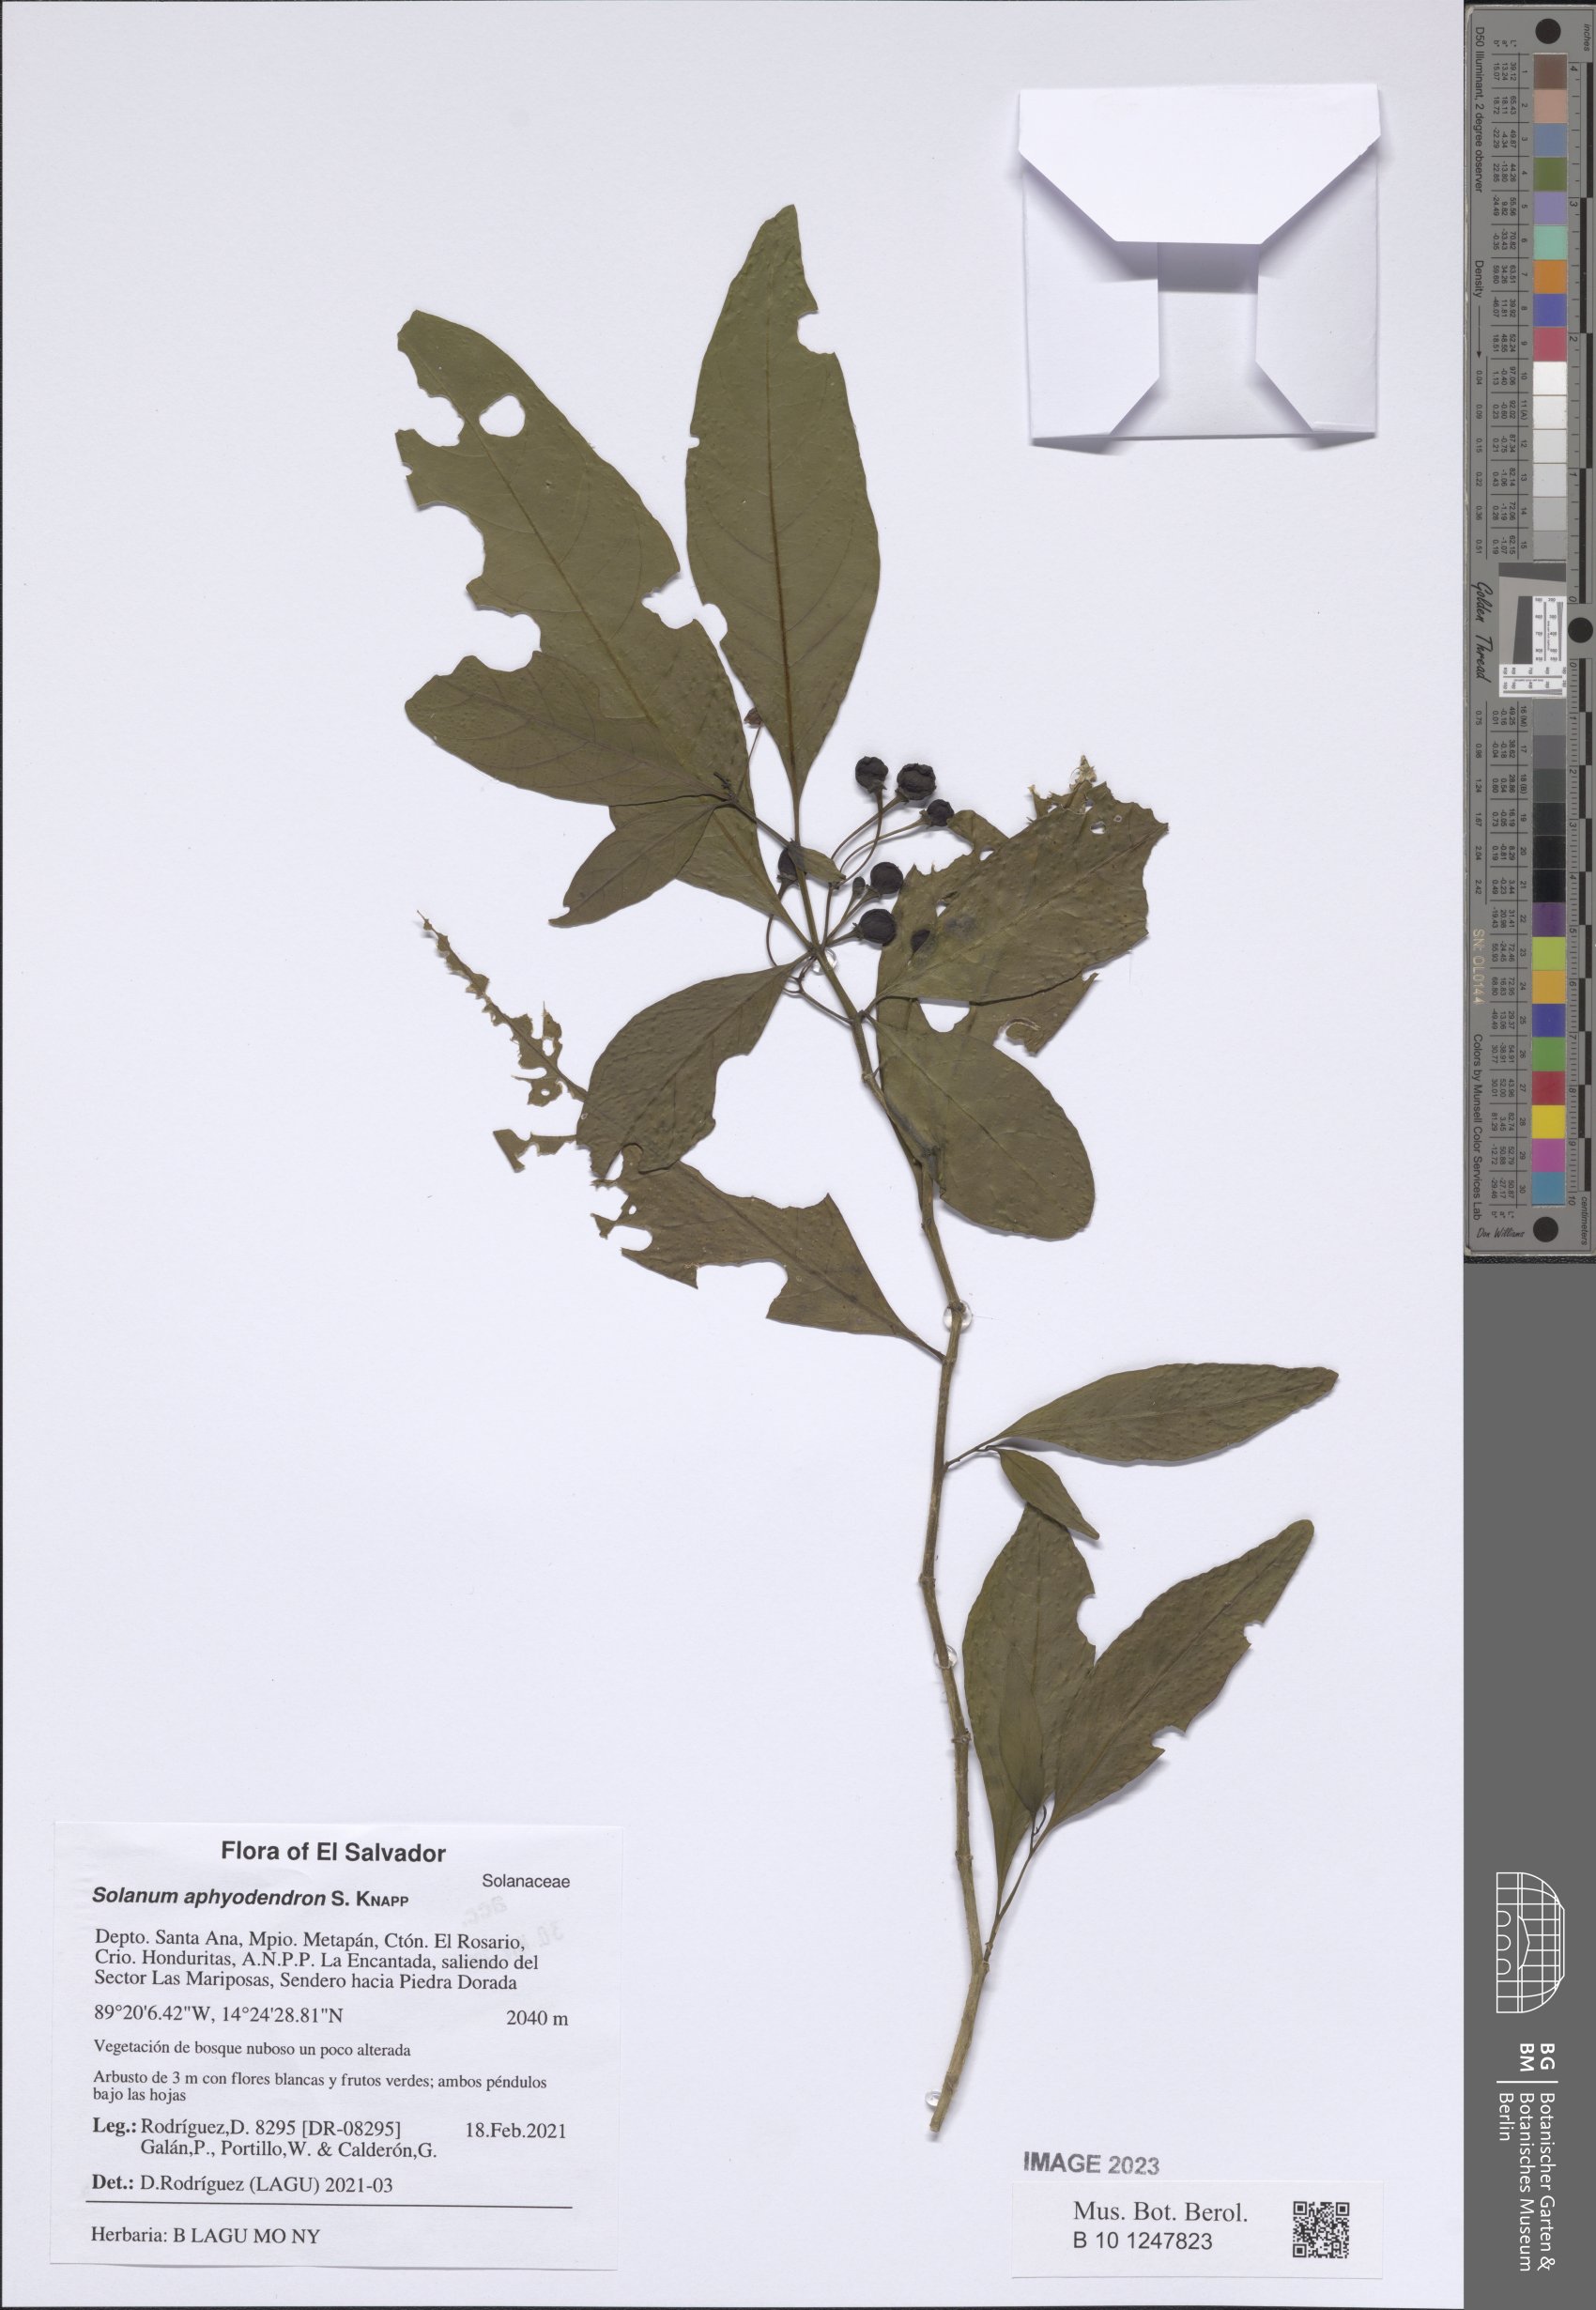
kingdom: Plantae
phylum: Tracheophyta
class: Magnoliopsida
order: Solanales
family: Solanaceae
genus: Solanum
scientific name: Solanum aphyodendron
